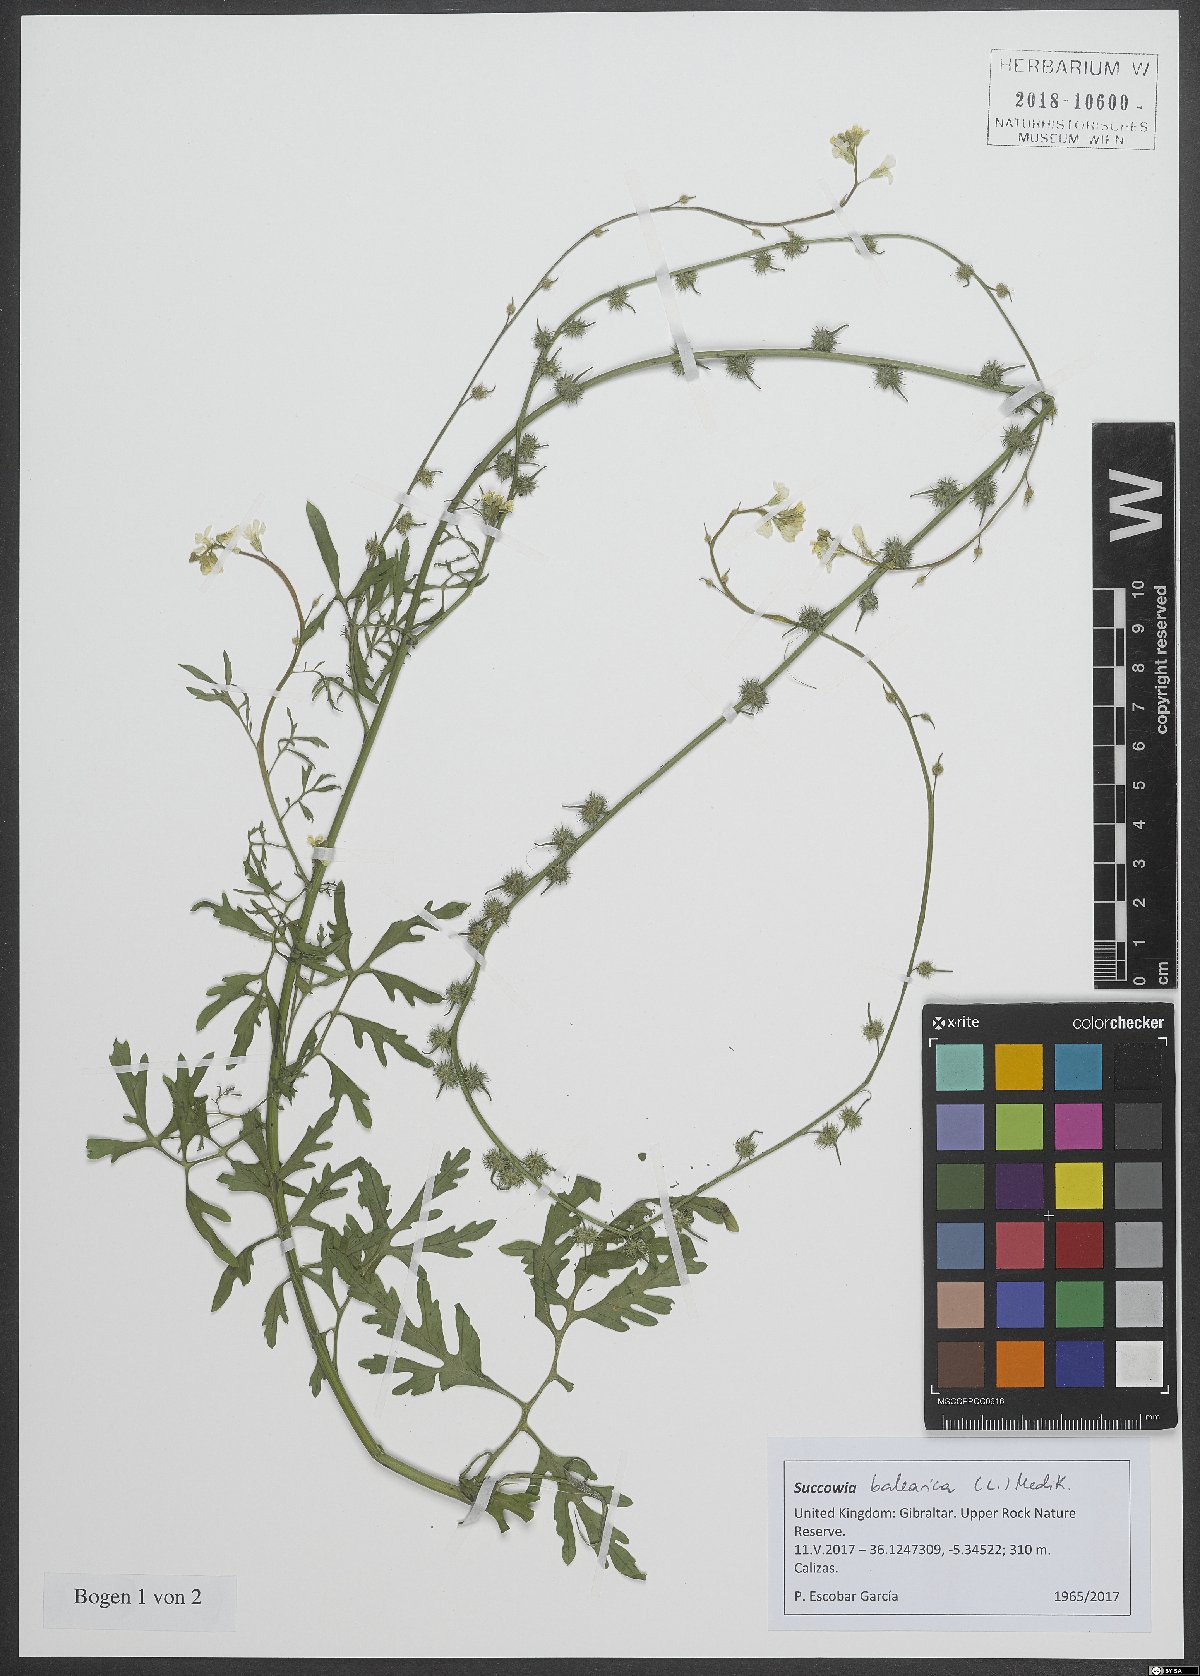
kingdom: Plantae
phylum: Tracheophyta
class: Magnoliopsida
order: Brassicales
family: Brassicaceae
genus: Succowia
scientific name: Succowia balearica
